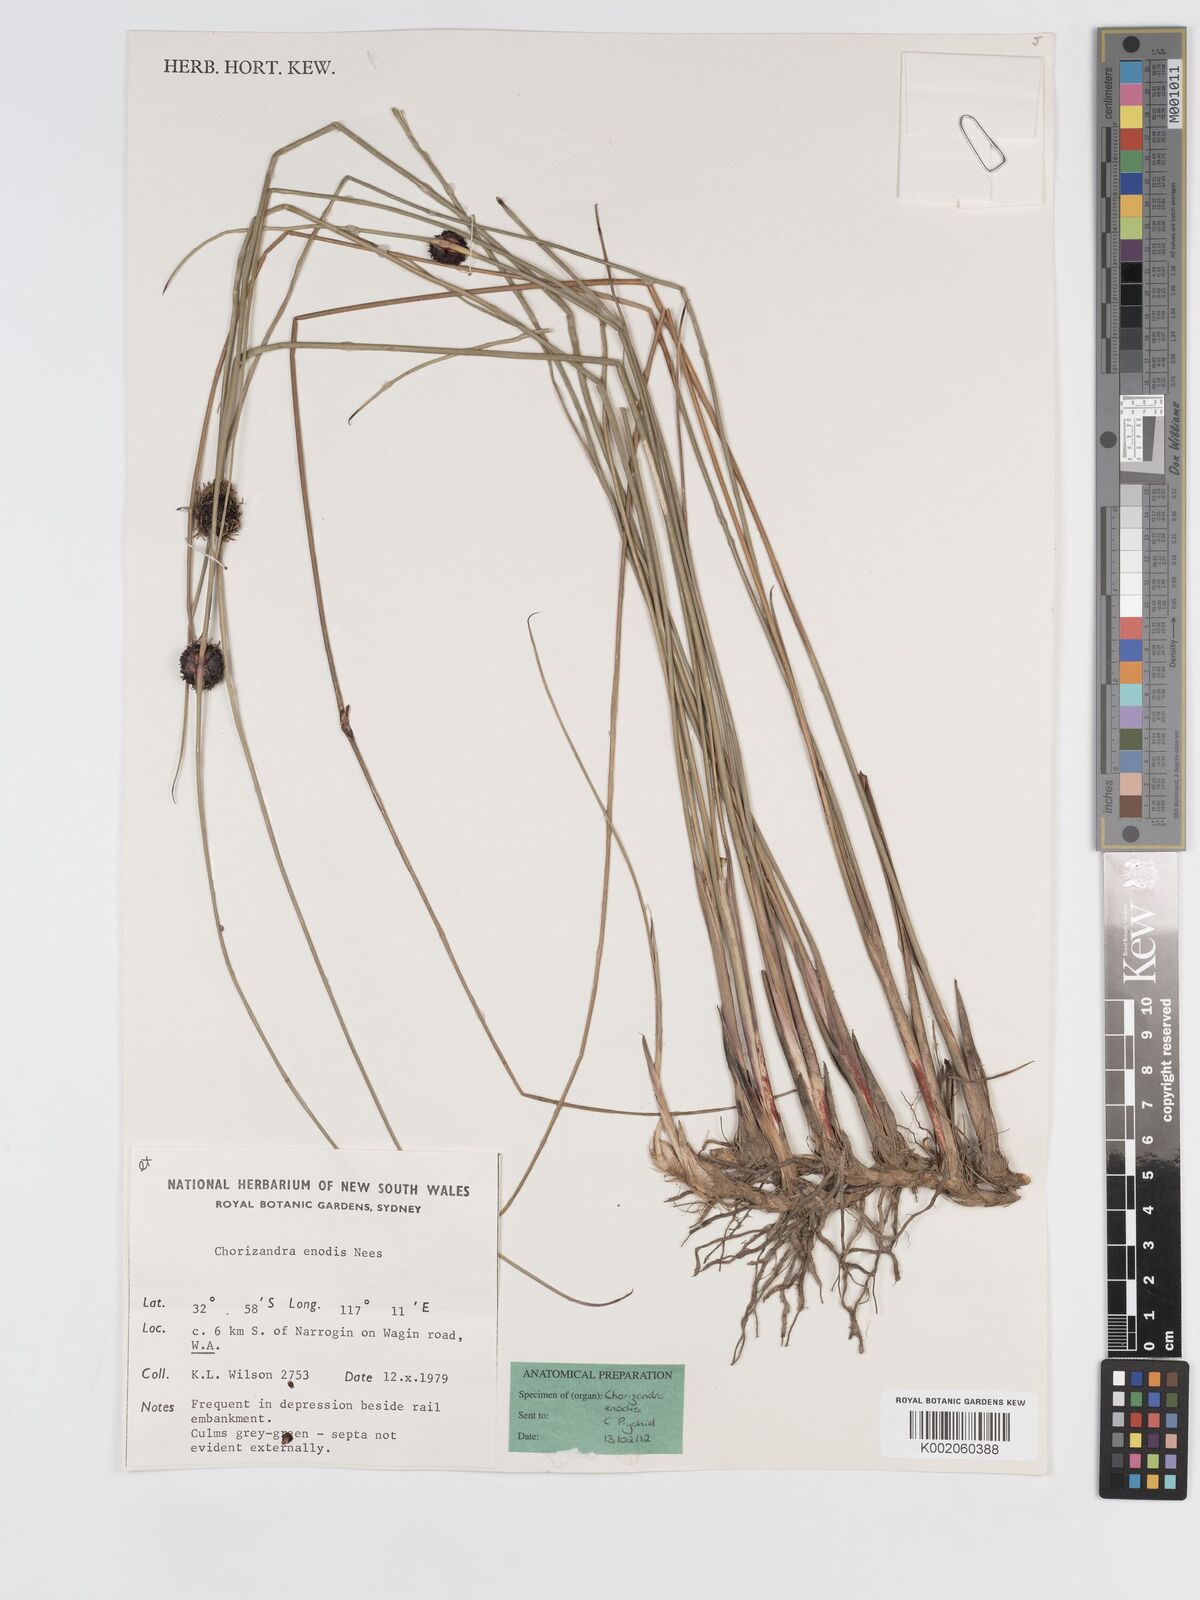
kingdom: Plantae
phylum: Tracheophyta
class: Liliopsida
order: Poales
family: Cyperaceae
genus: Chorizandra
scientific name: Chorizandra enodis
